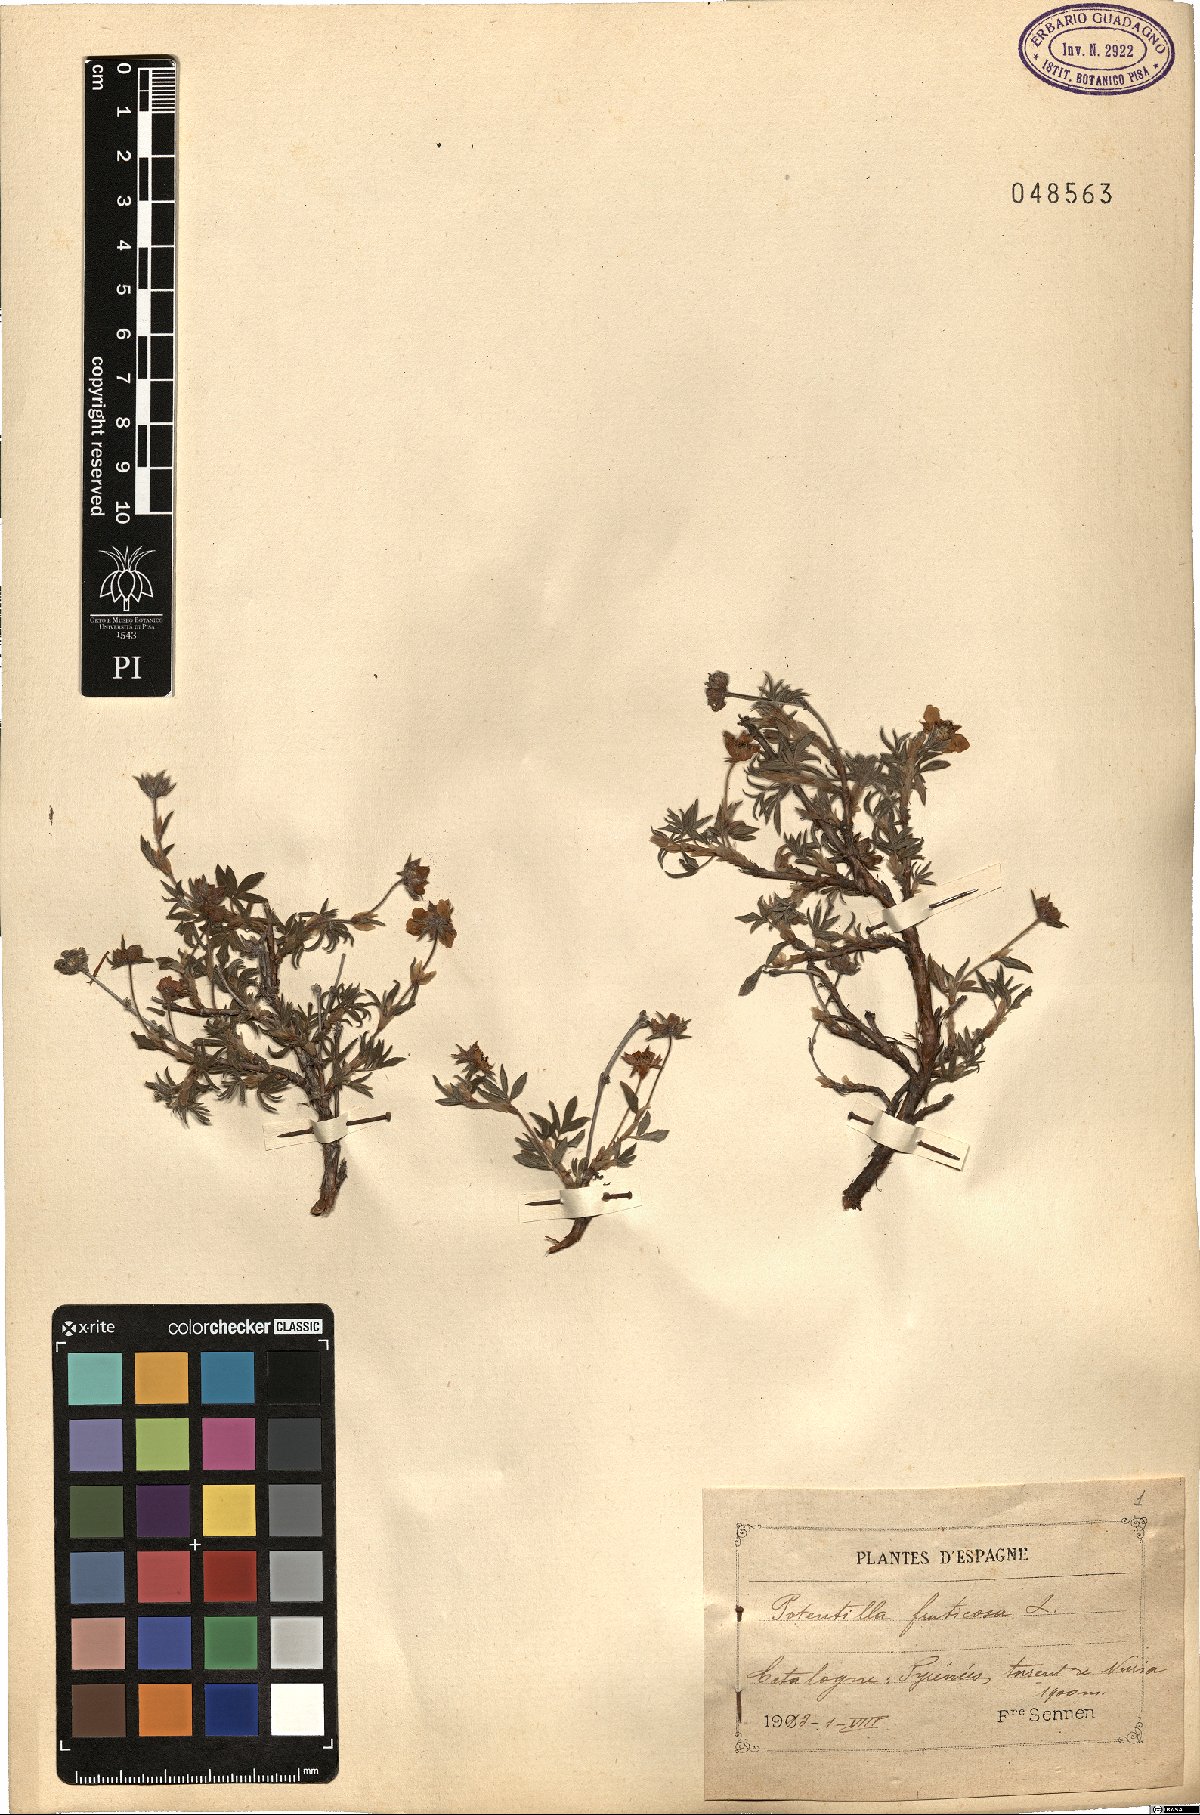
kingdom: Plantae
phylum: Tracheophyta
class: Magnoliopsida
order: Rosales
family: Rosaceae
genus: Dasiphora
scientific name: Dasiphora fruticosa
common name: Shrubby cinquefoil
